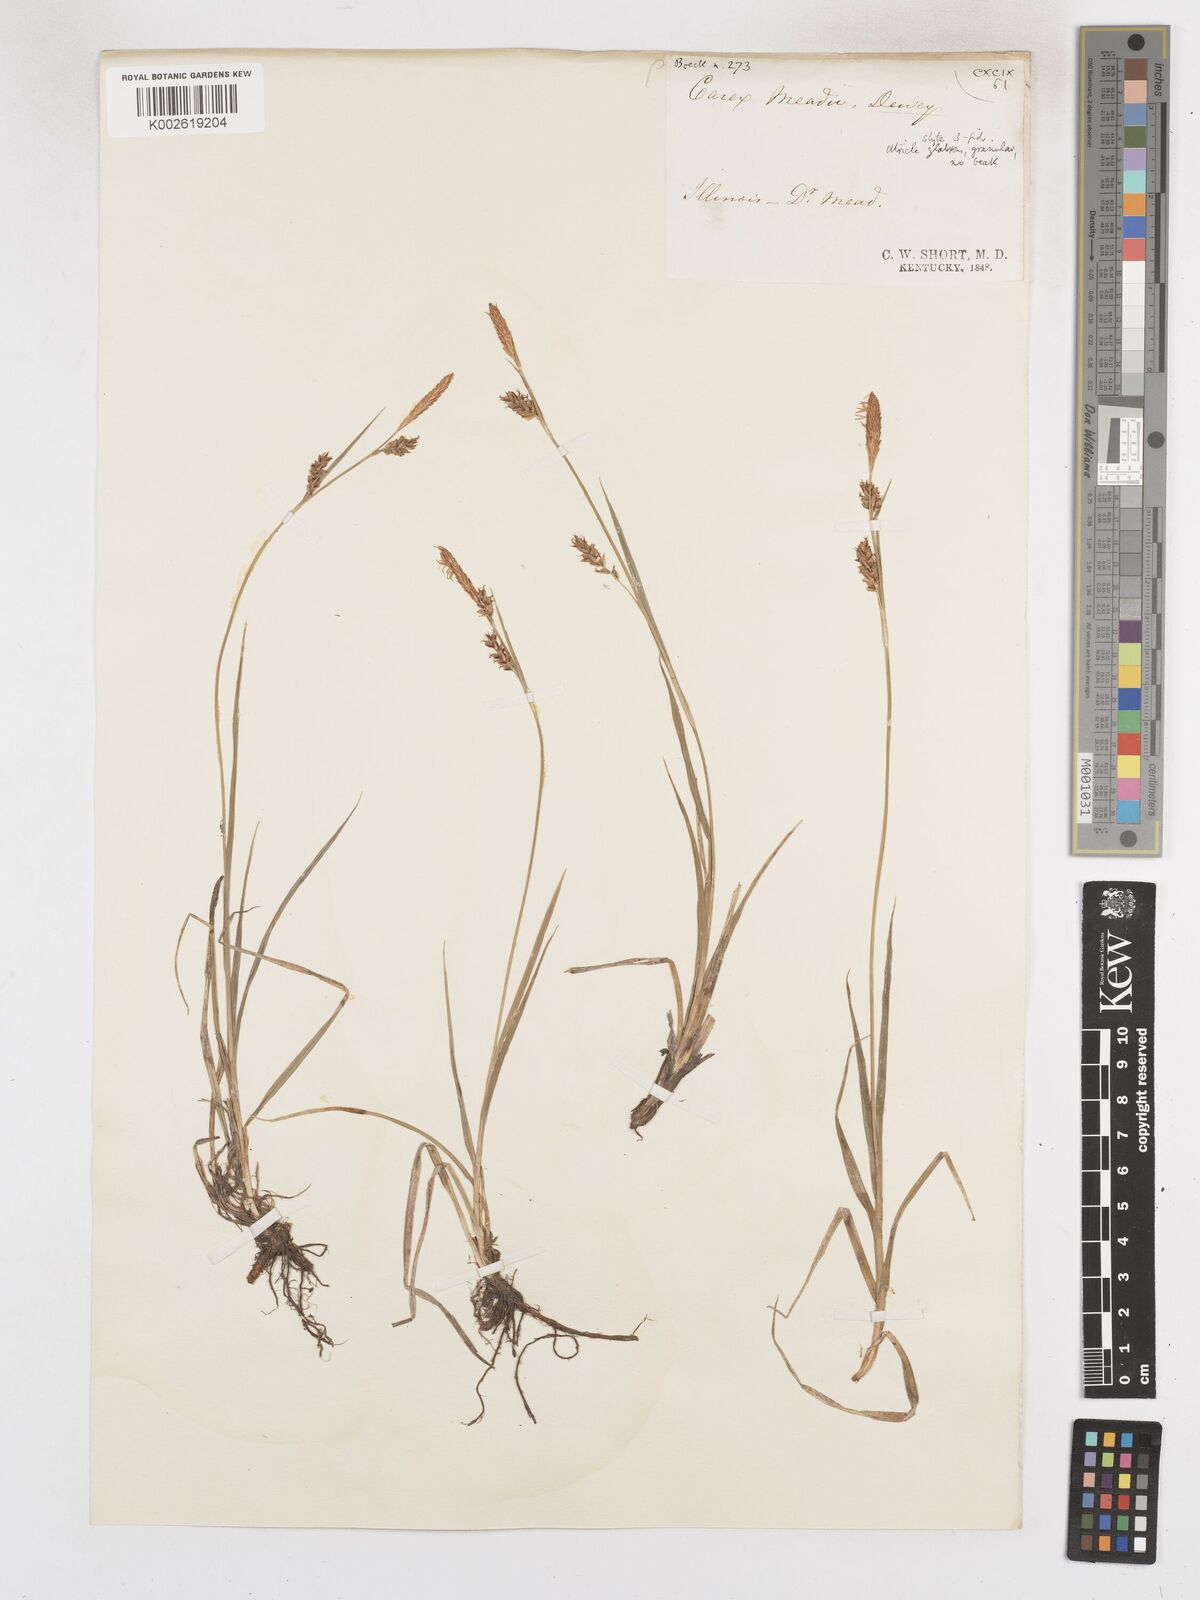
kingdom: Plantae
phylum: Tracheophyta
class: Liliopsida
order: Poales
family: Cyperaceae
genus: Carex
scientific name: Carex microdonta
